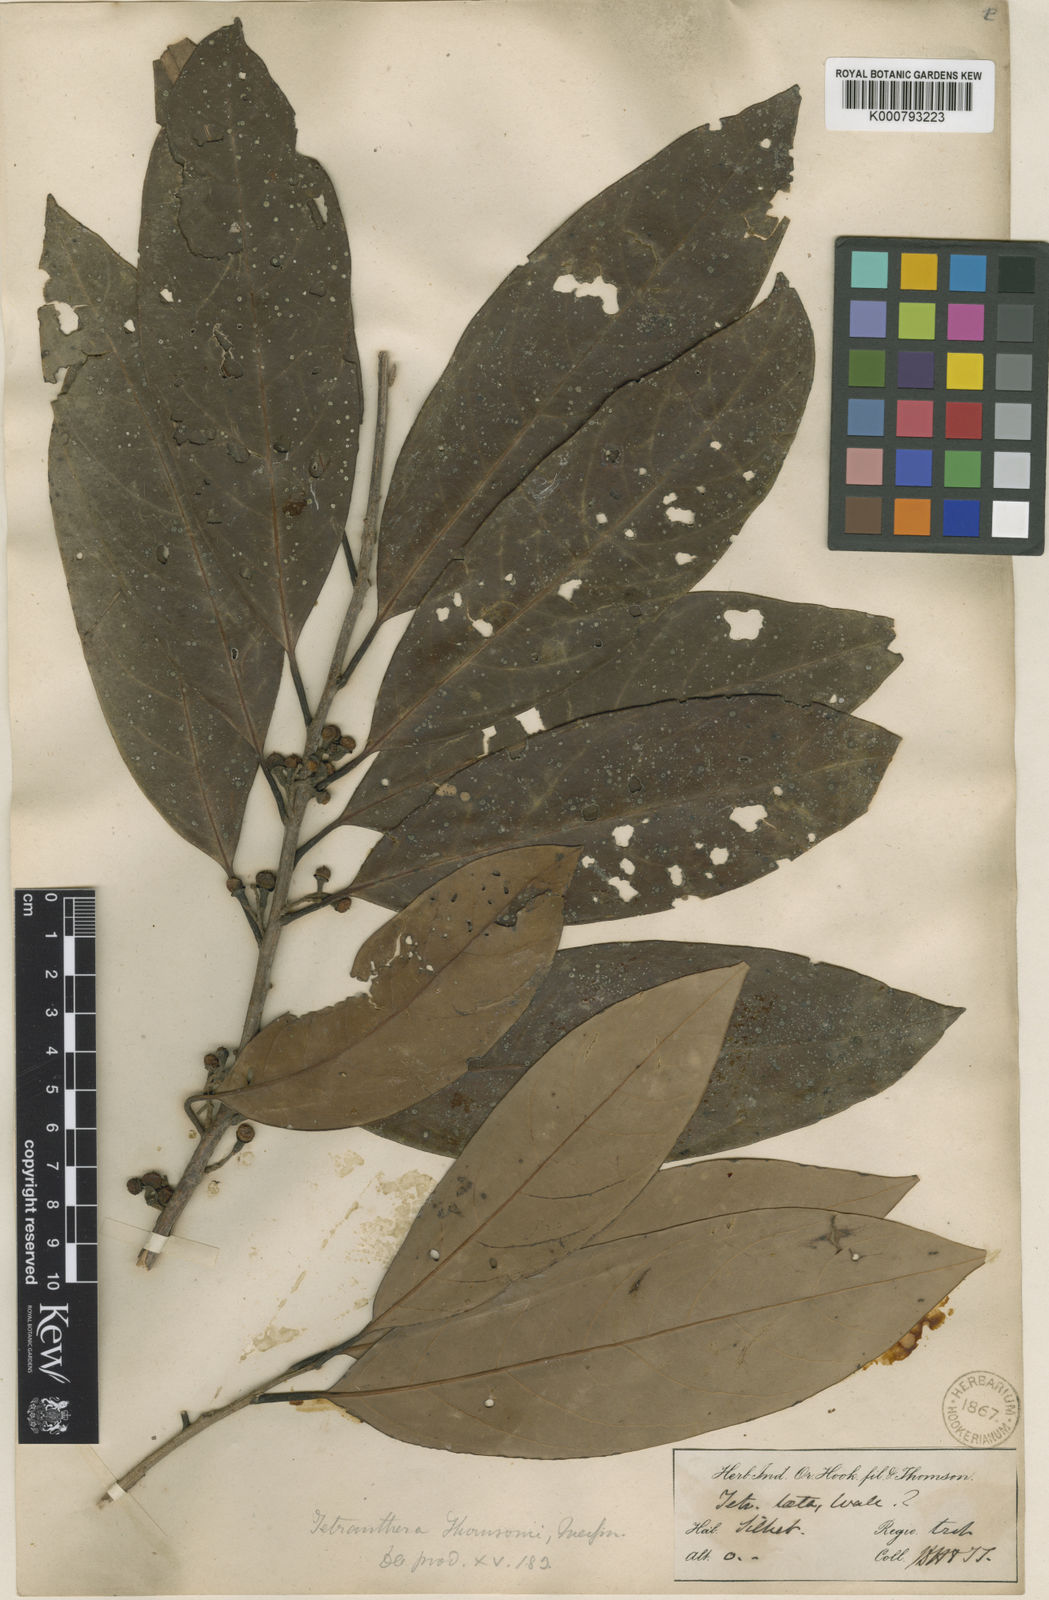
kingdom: Plantae
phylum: Tracheophyta
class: Magnoliopsida
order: Laurales
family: Lauraceae
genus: Litsea
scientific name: Litsea thomsonii
